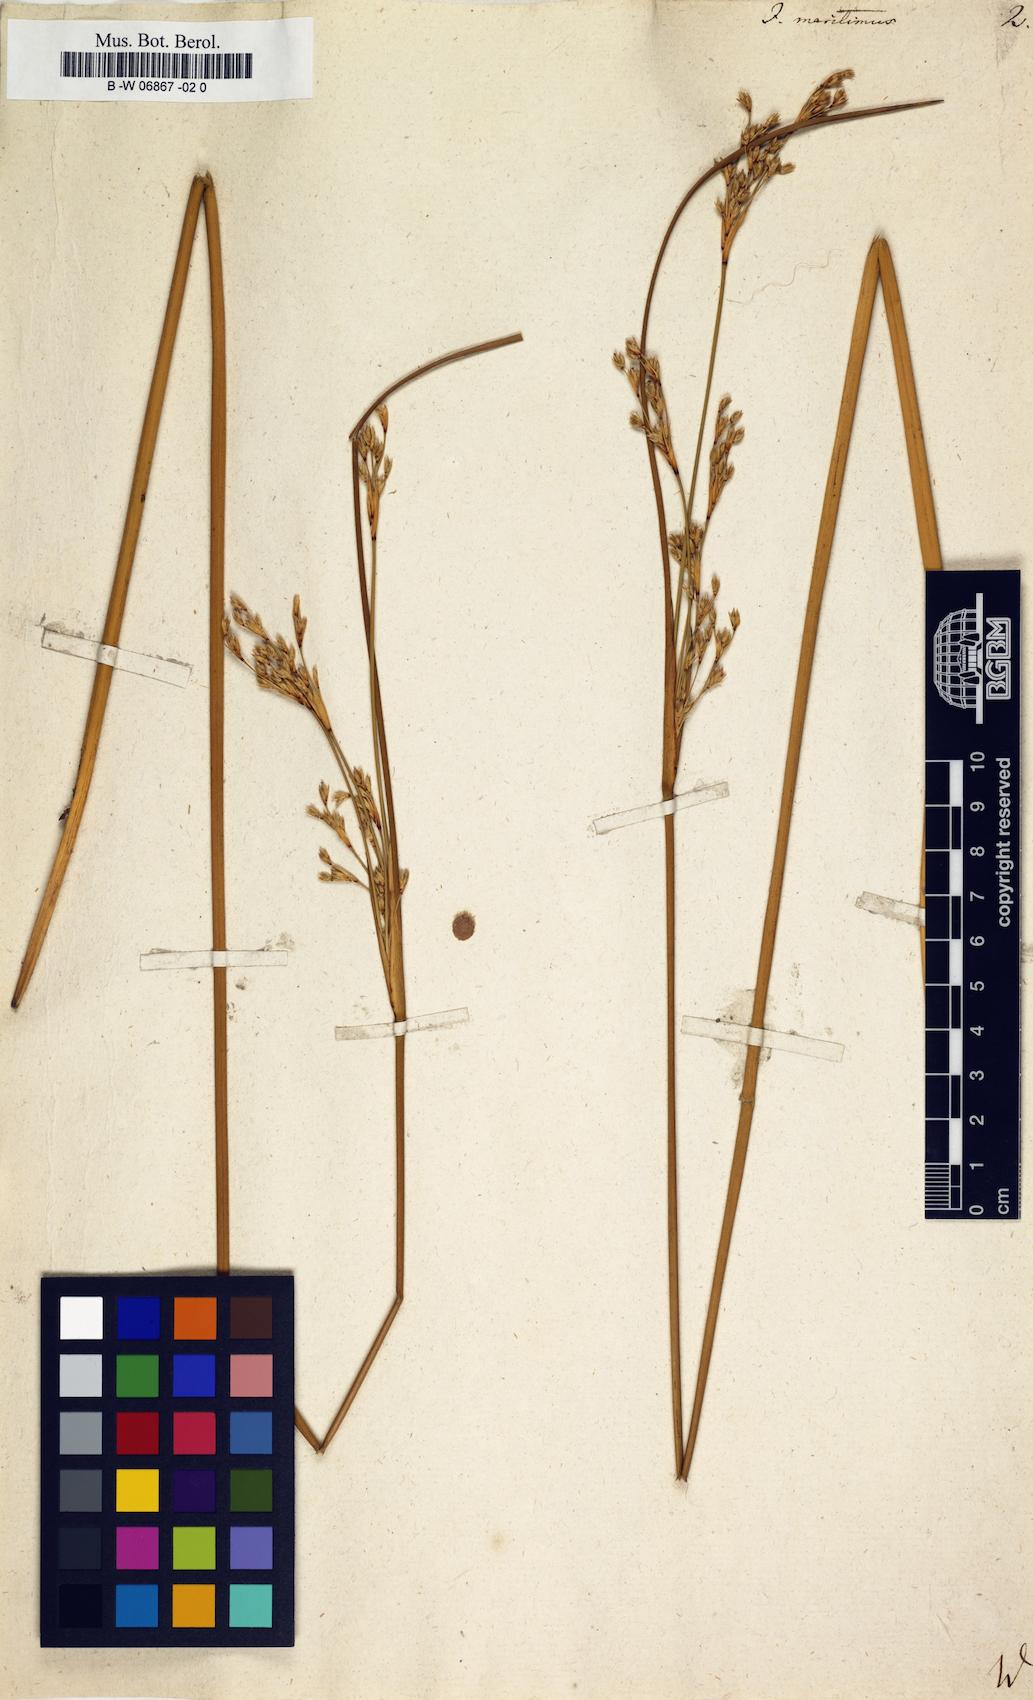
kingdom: Plantae
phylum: Tracheophyta
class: Liliopsida
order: Poales
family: Juncaceae
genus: Juncus
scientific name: Juncus maritimus
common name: Sea rush
